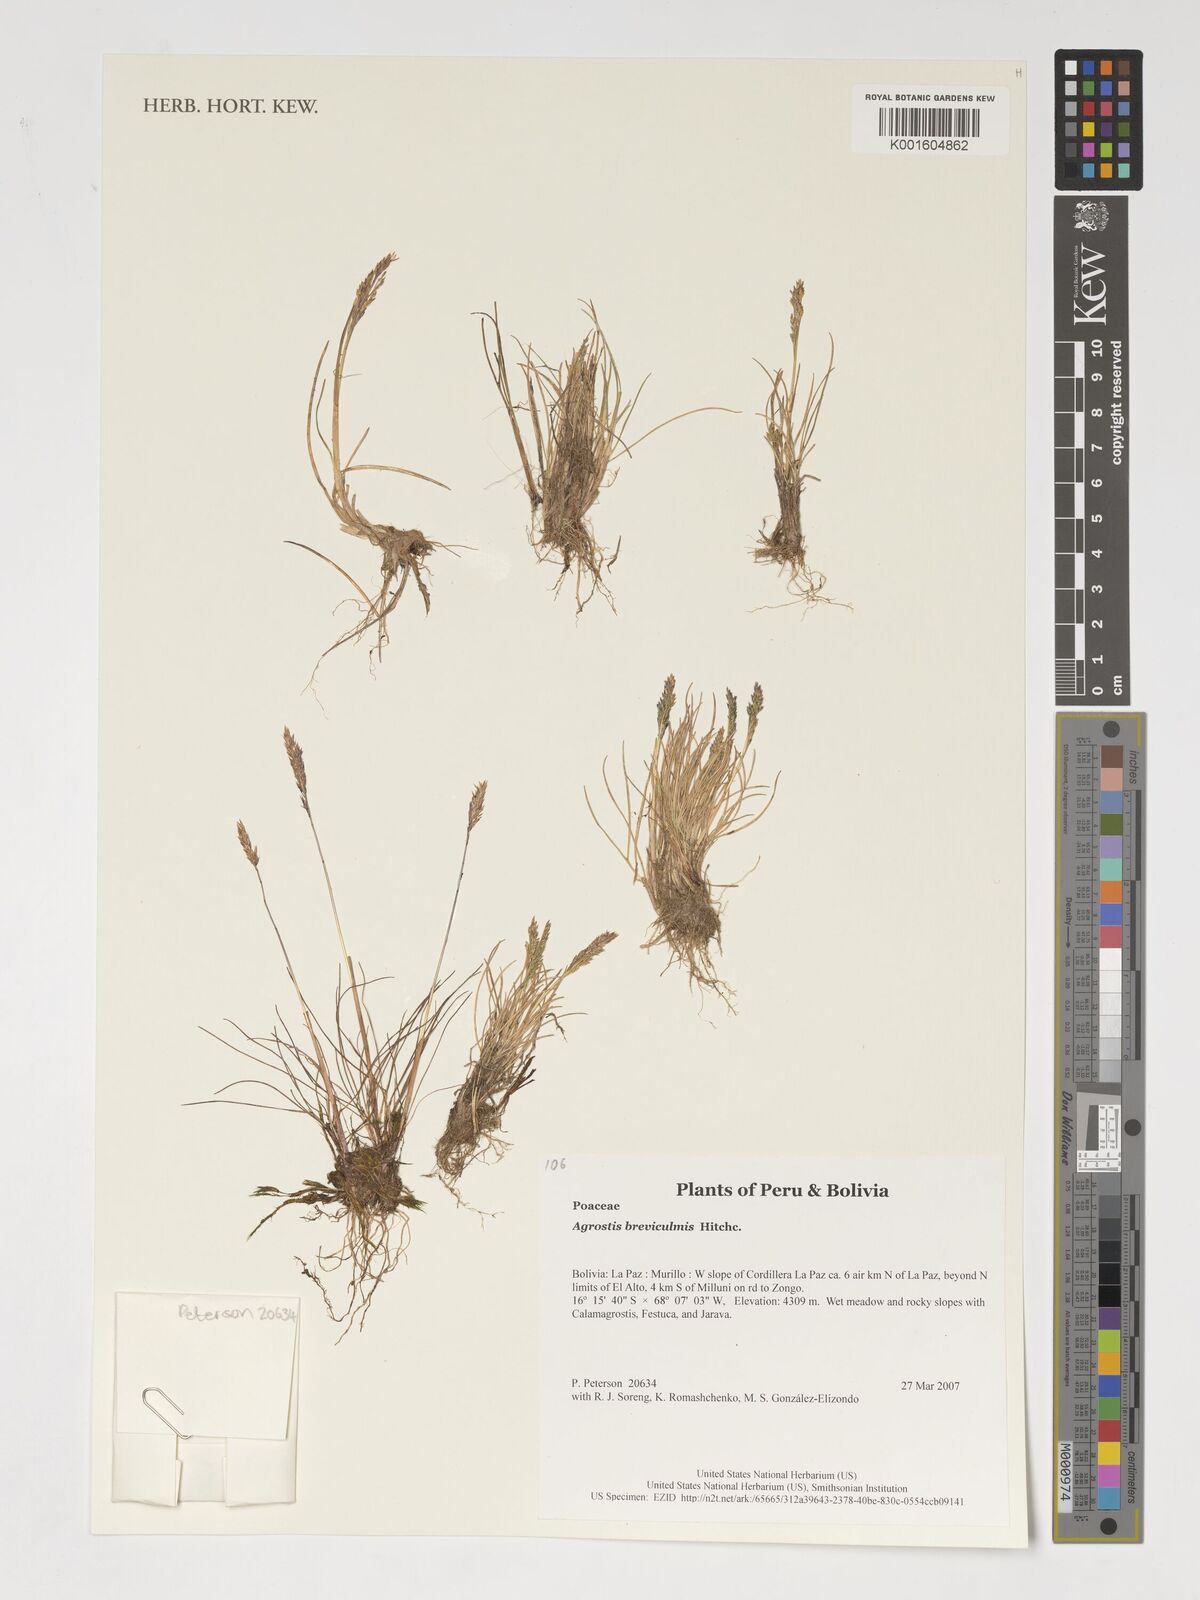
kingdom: Plantae
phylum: Tracheophyta
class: Liliopsida
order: Poales
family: Poaceae
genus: Agrostis
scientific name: Agrostis breviculmis
